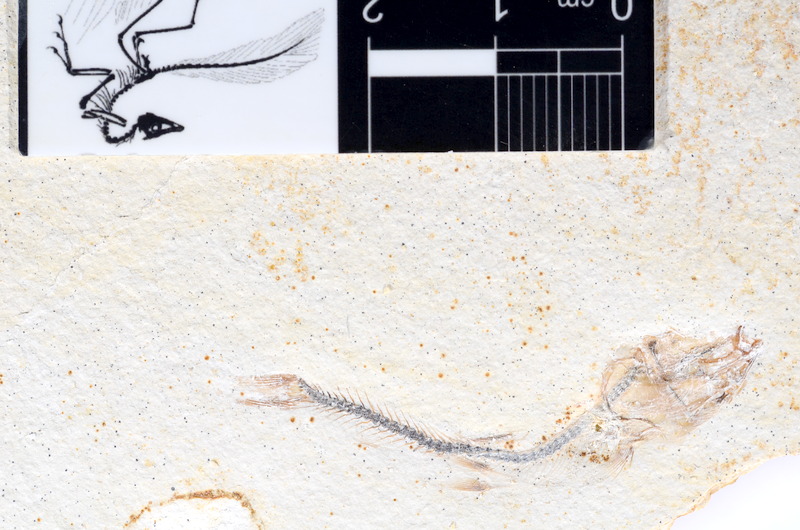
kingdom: Animalia
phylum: Chordata
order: Salmoniformes
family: Orthogonikleithridae
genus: Orthogonikleithrus
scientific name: Orthogonikleithrus hoelli
